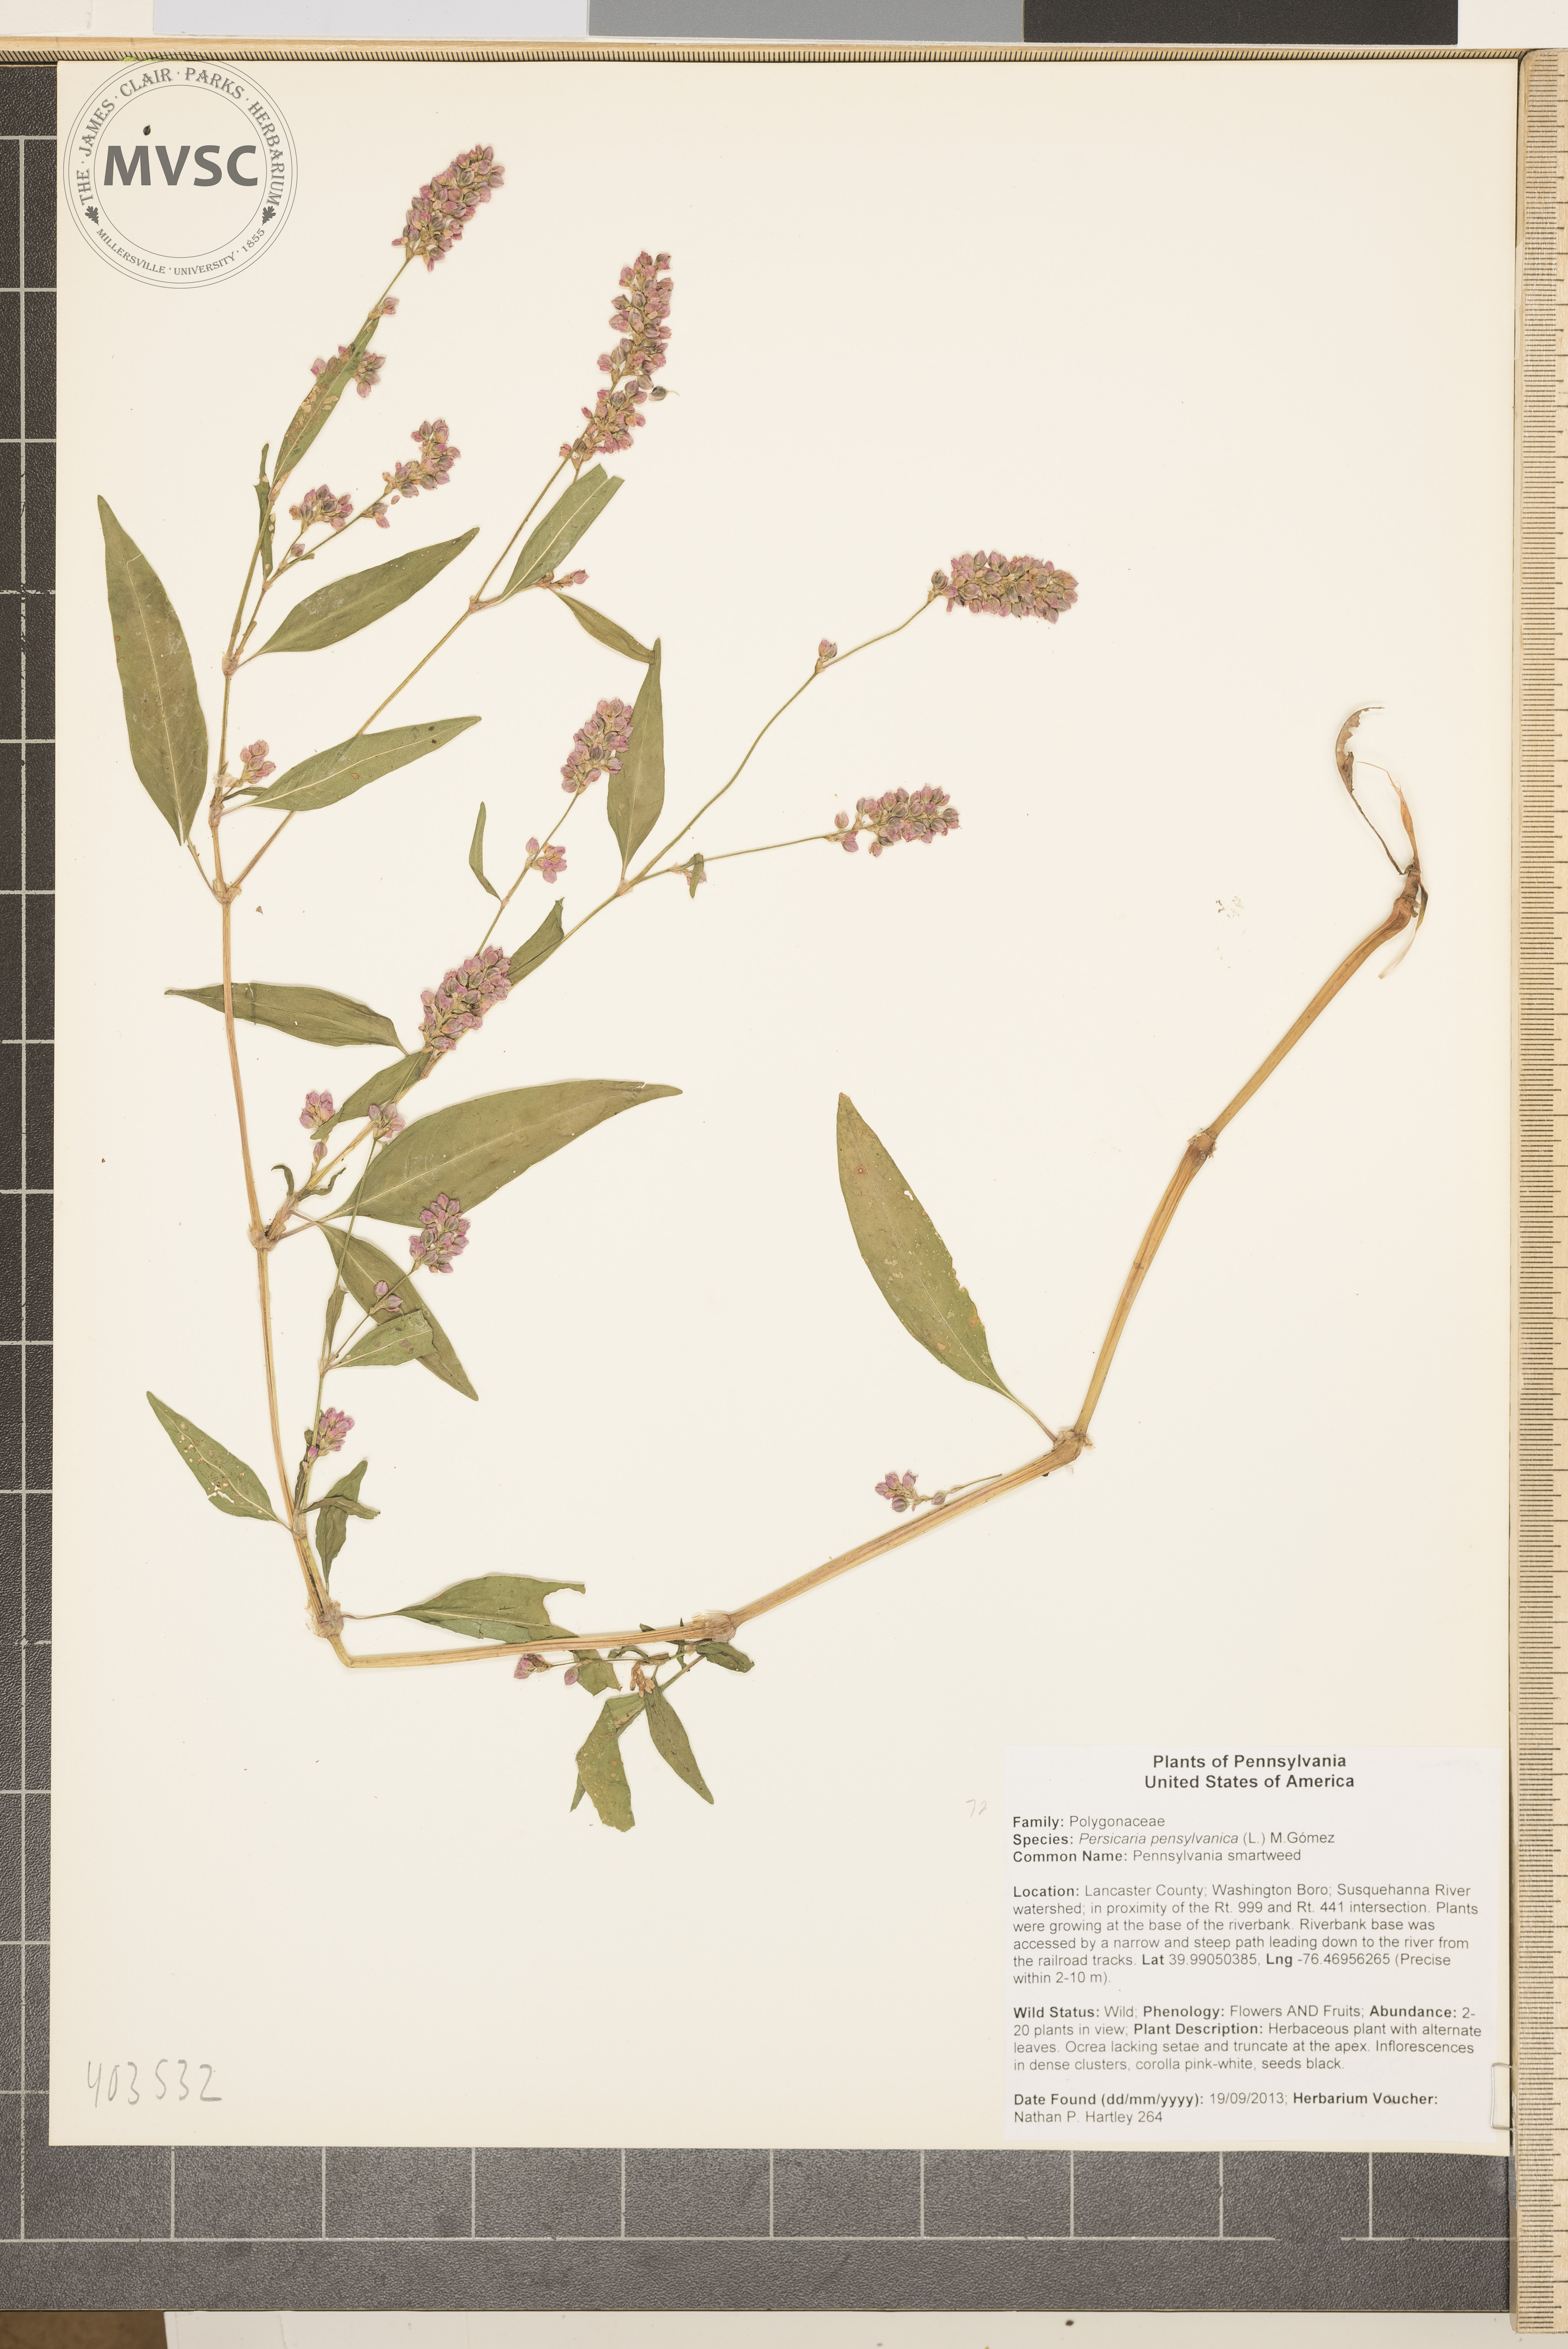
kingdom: Plantae
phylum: Tracheophyta
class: Magnoliopsida
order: Caryophyllales
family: Polygonaceae
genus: Persicaria
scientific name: Persicaria pensylvanica
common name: Pinkweed
